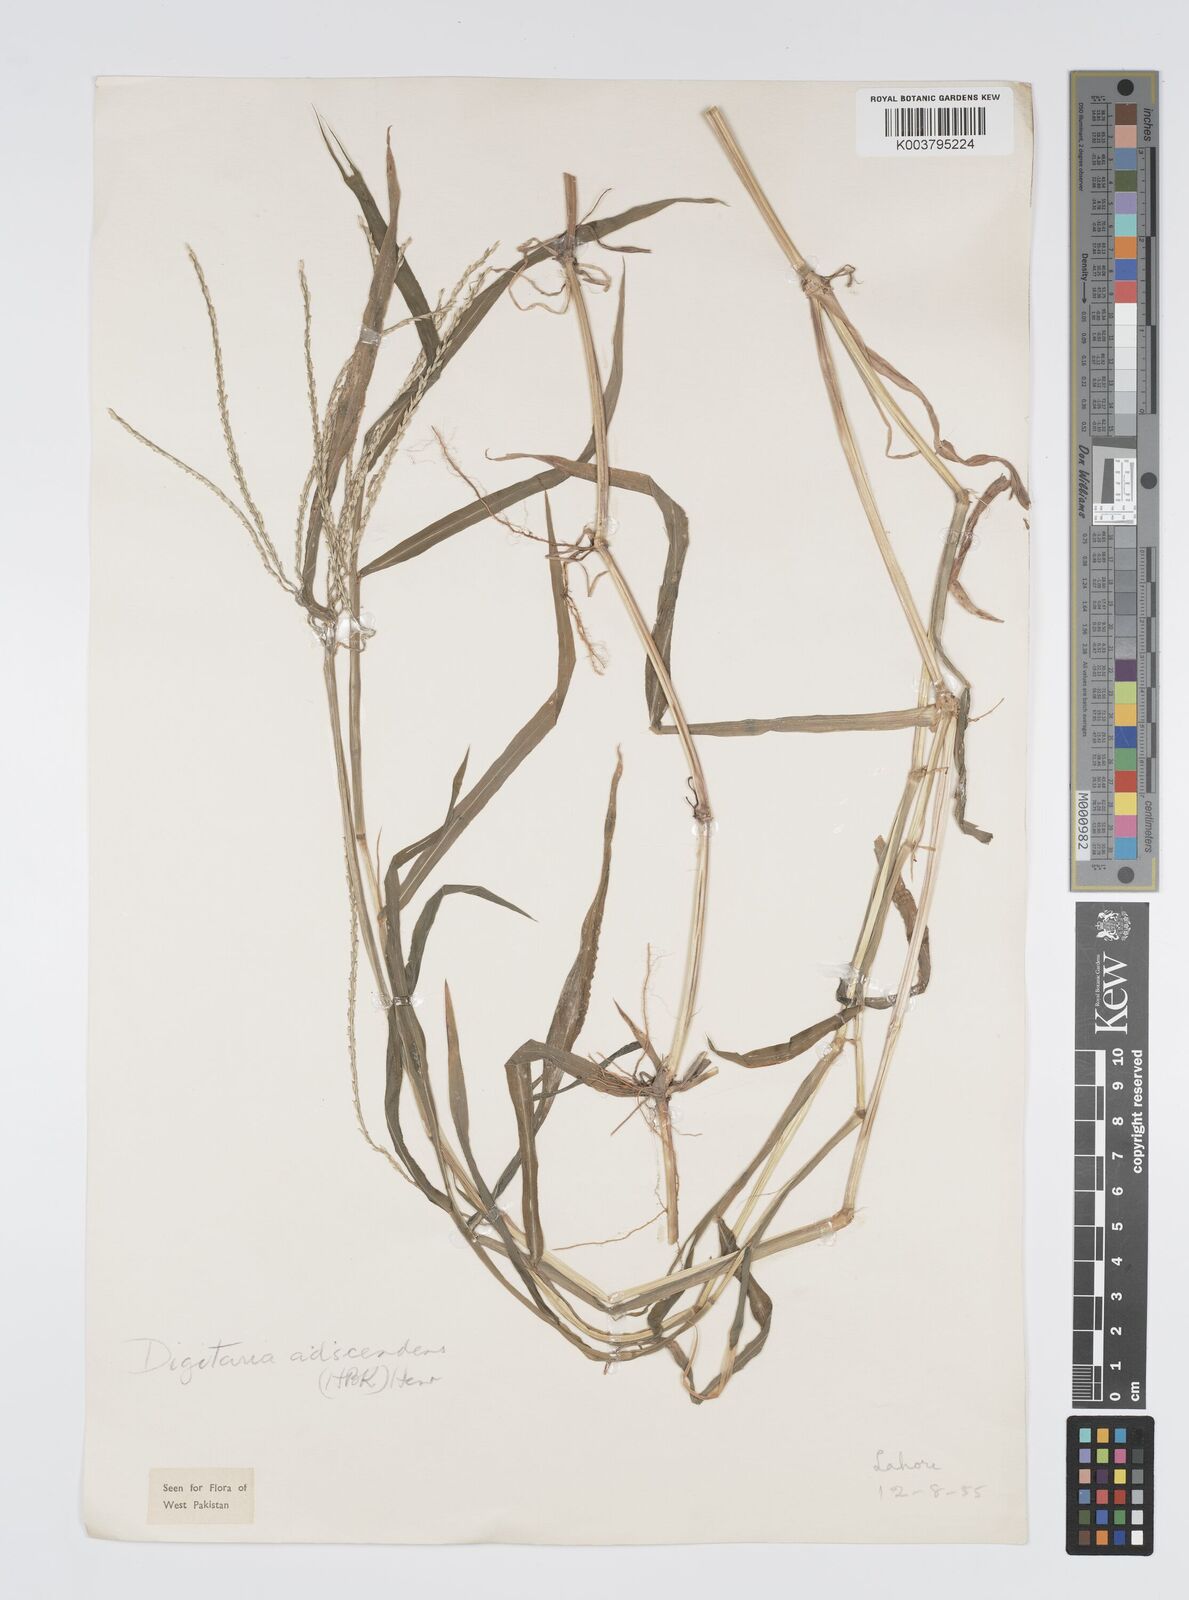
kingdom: Plantae
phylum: Tracheophyta
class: Liliopsida
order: Poales
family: Poaceae
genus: Digitaria
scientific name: Digitaria ciliaris
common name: Tropical finger-grass
